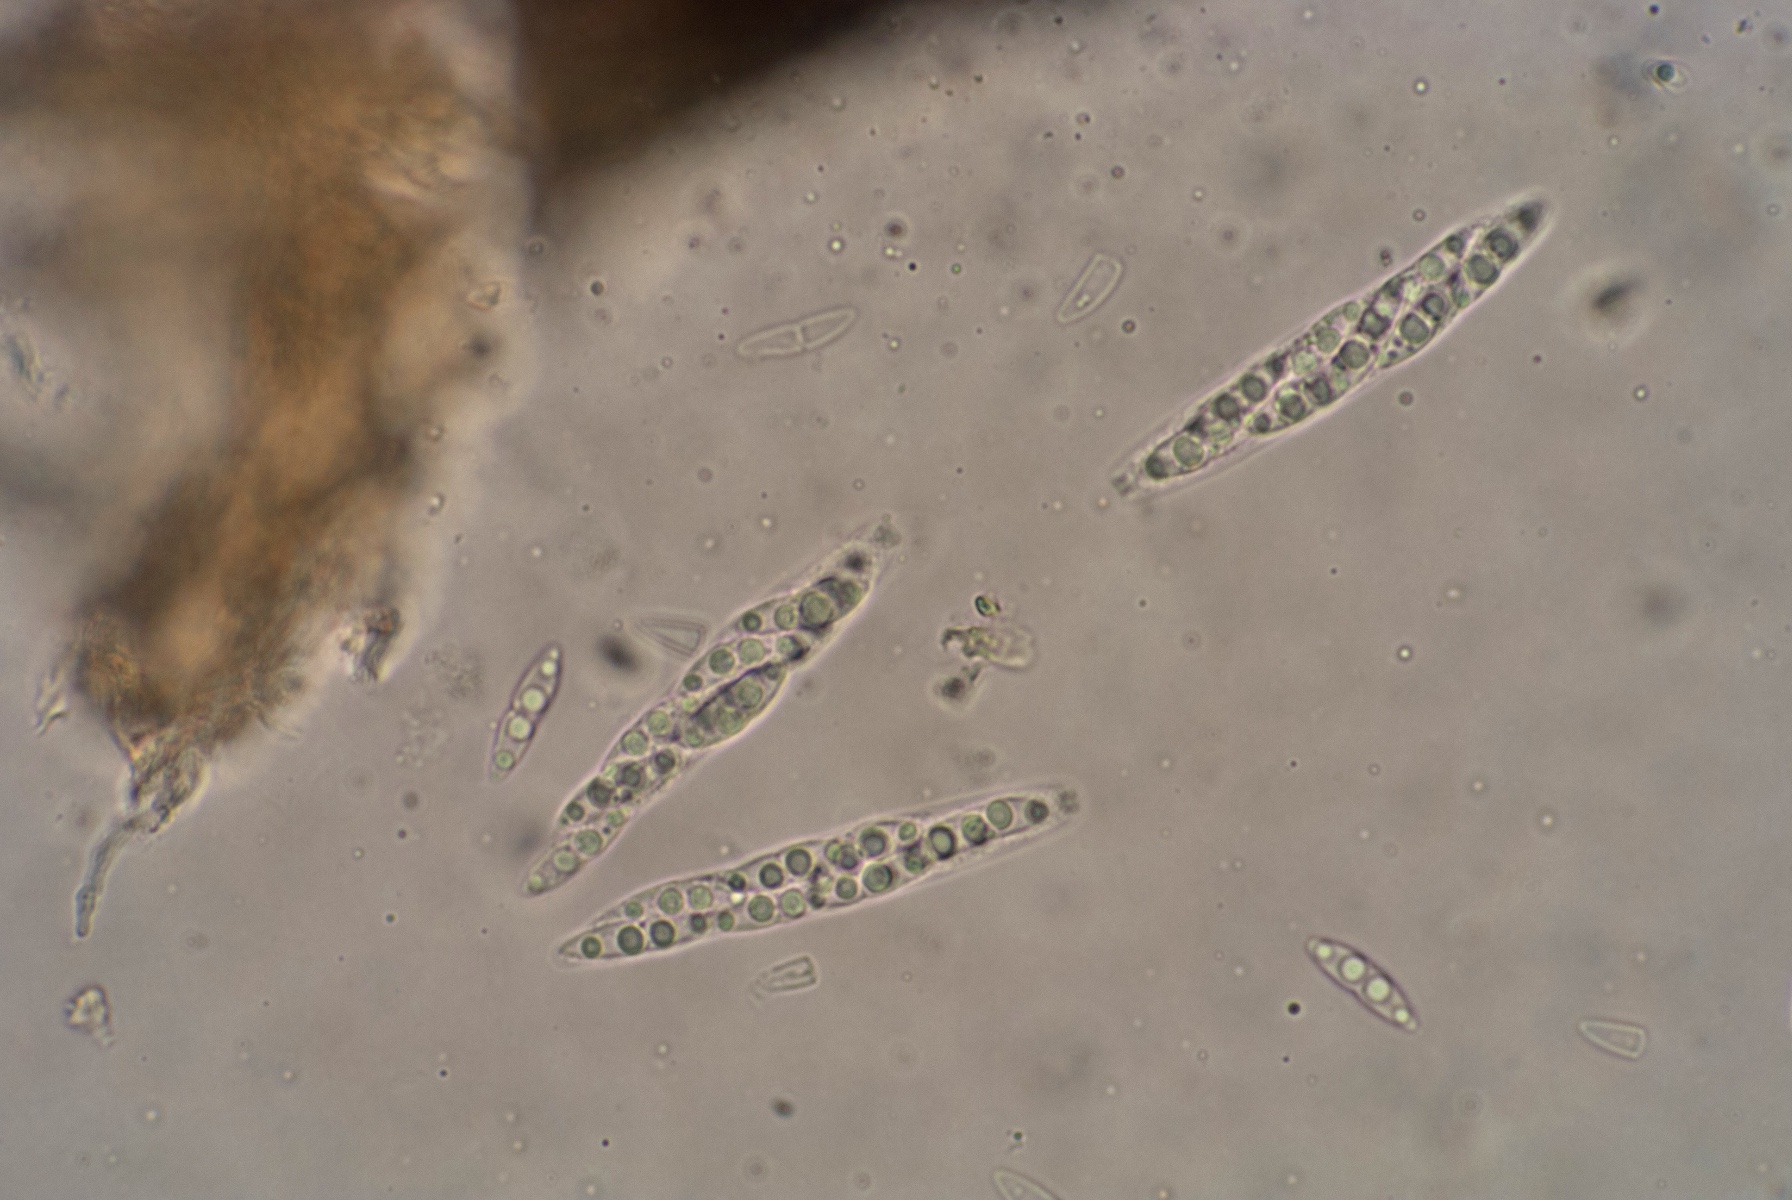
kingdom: Fungi
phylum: Ascomycota
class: Sordariomycetes
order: Diaporthales
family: Diaporthaceae
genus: Diaporthe
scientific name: Diaporthe strumella
